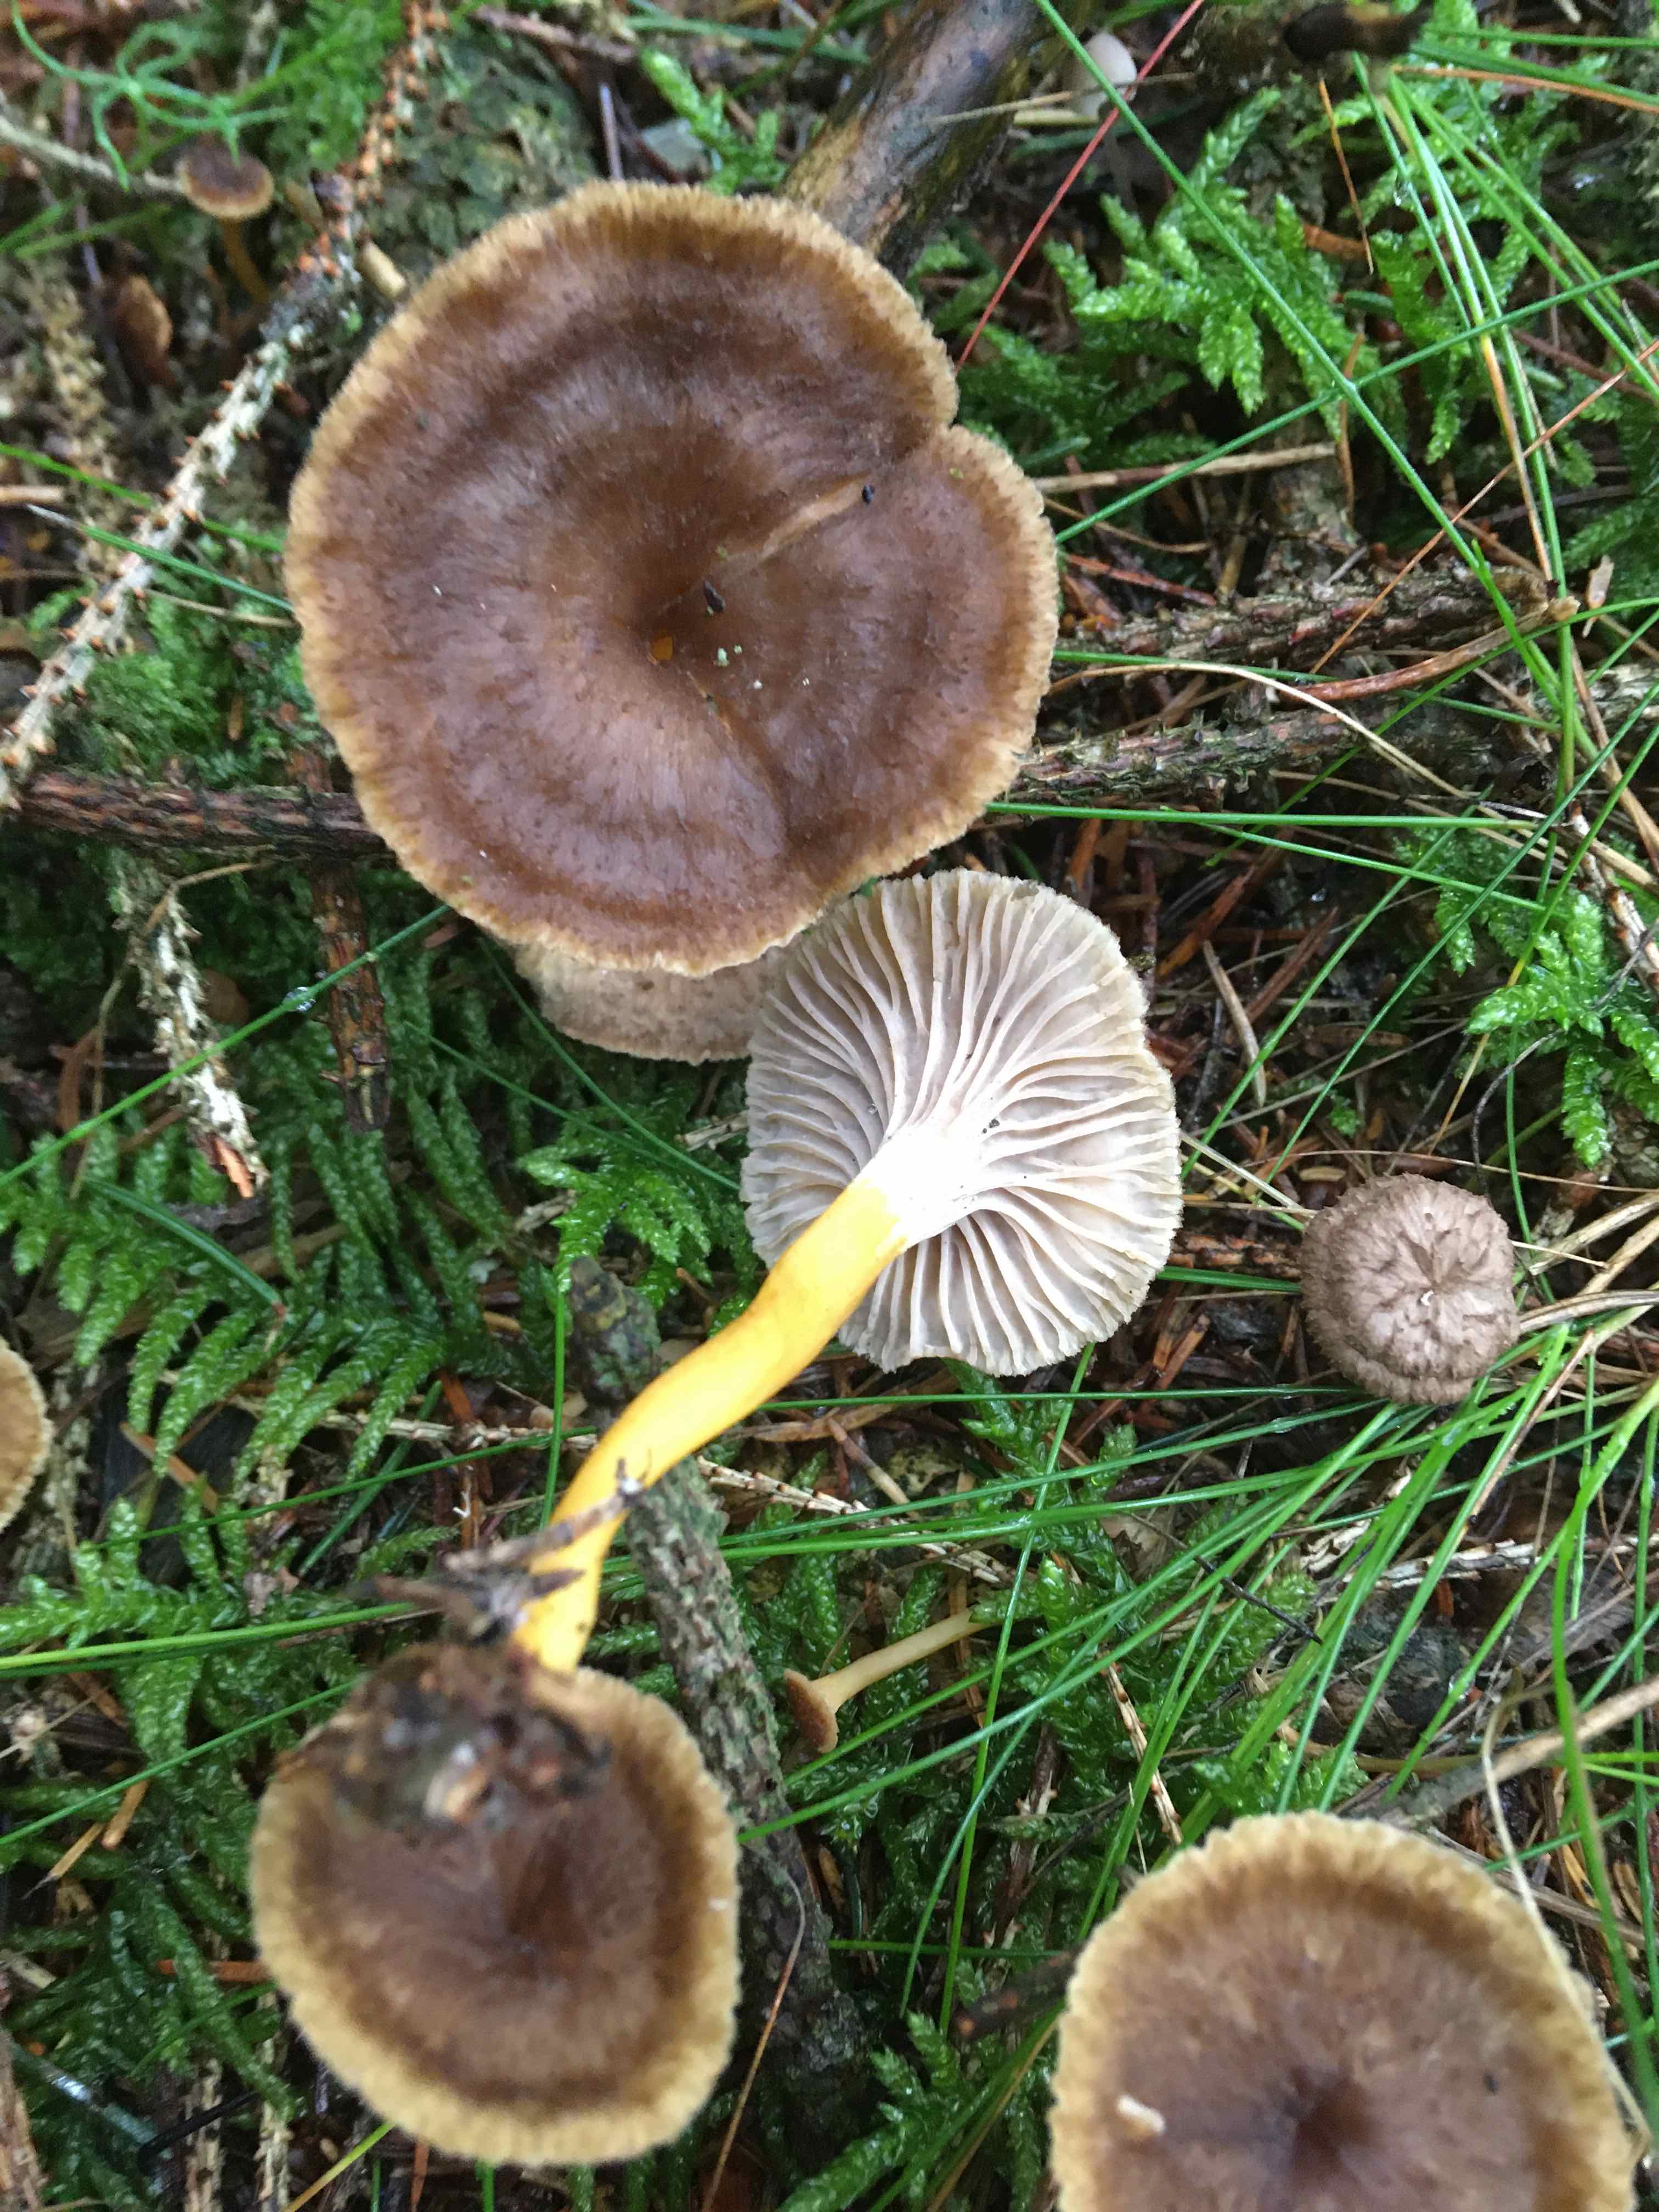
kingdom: Fungi
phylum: Basidiomycota
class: Agaricomycetes
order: Cantharellales
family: Hydnaceae
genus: Craterellus
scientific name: Craterellus tubaeformis
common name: tragt-kantarel
